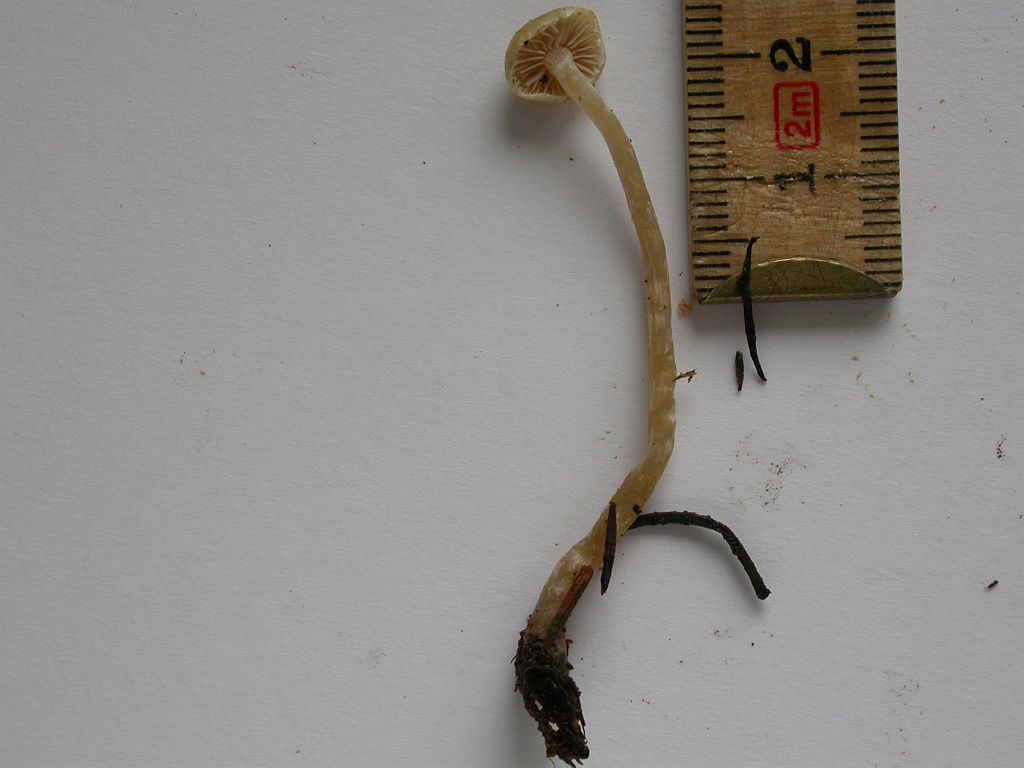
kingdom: Fungi
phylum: Basidiomycota
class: Agaricomycetes
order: Agaricales
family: Strophariaceae
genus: Hypholoma
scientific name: Hypholoma polytrichi
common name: jomfruhår-svovlhat
